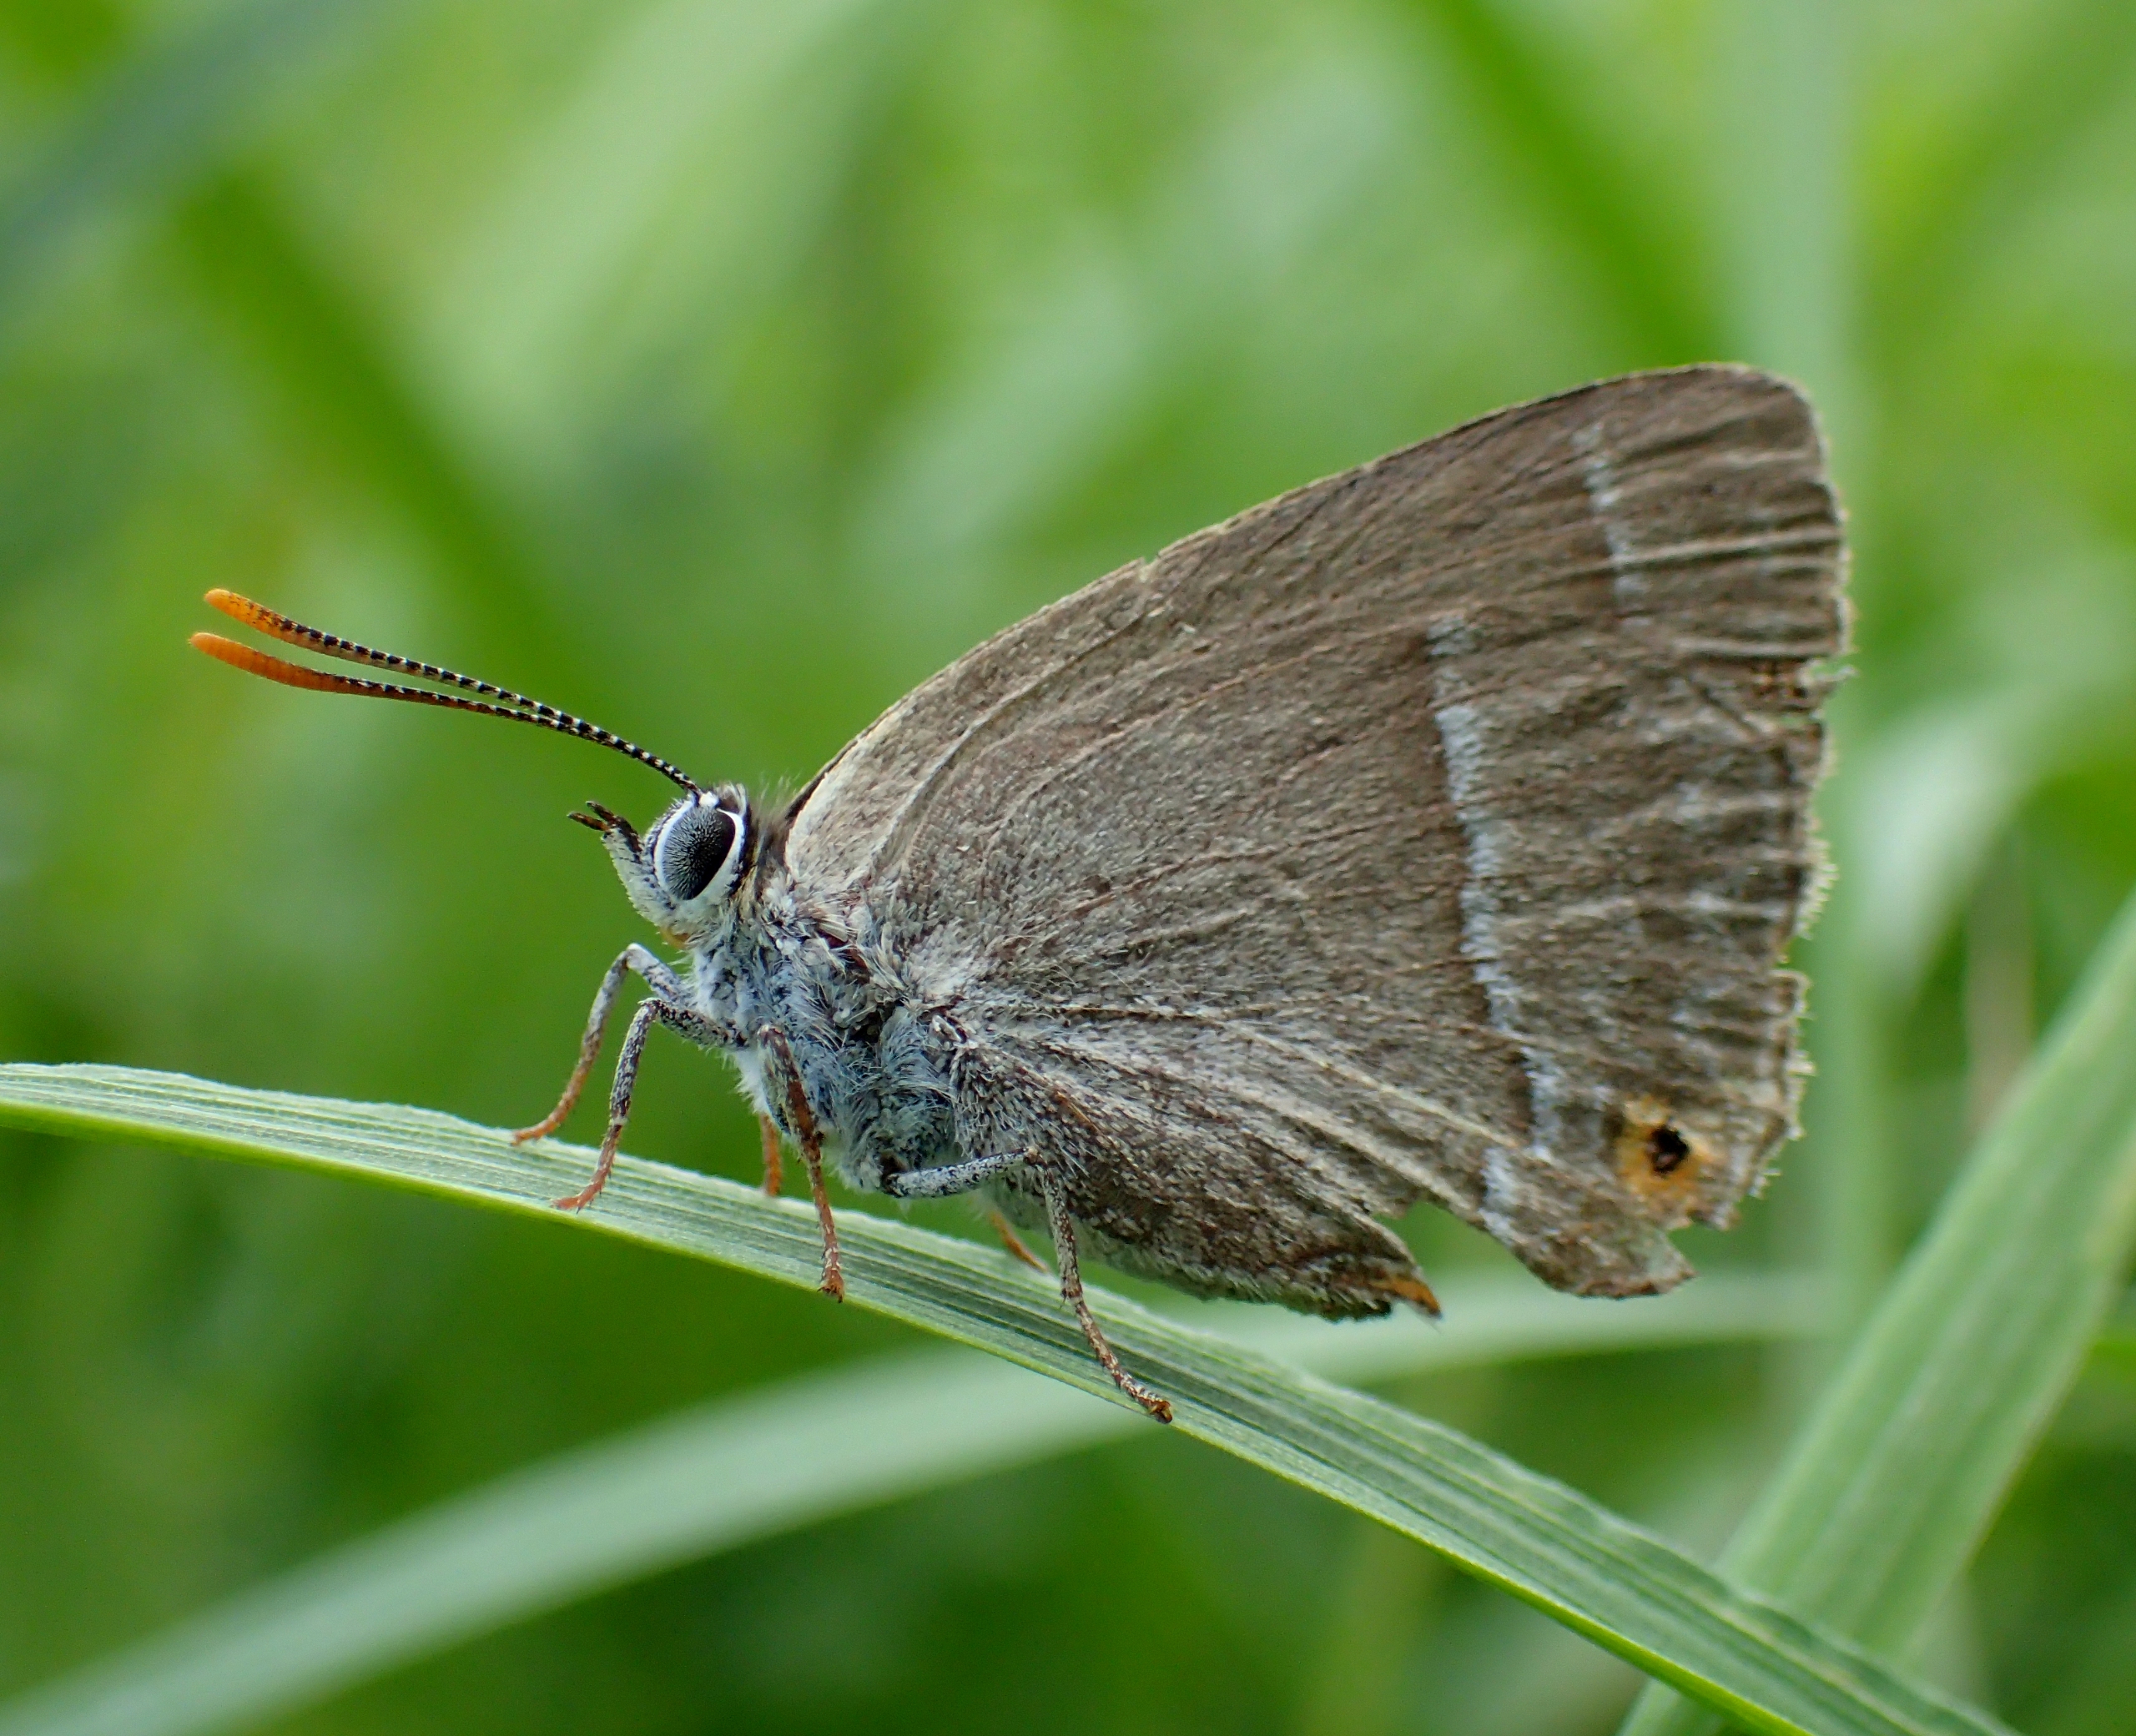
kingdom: Animalia
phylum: Arthropoda
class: Insecta
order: Lepidoptera
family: Lycaenidae
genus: Quercusia
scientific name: Quercusia quercus
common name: Blåhale
